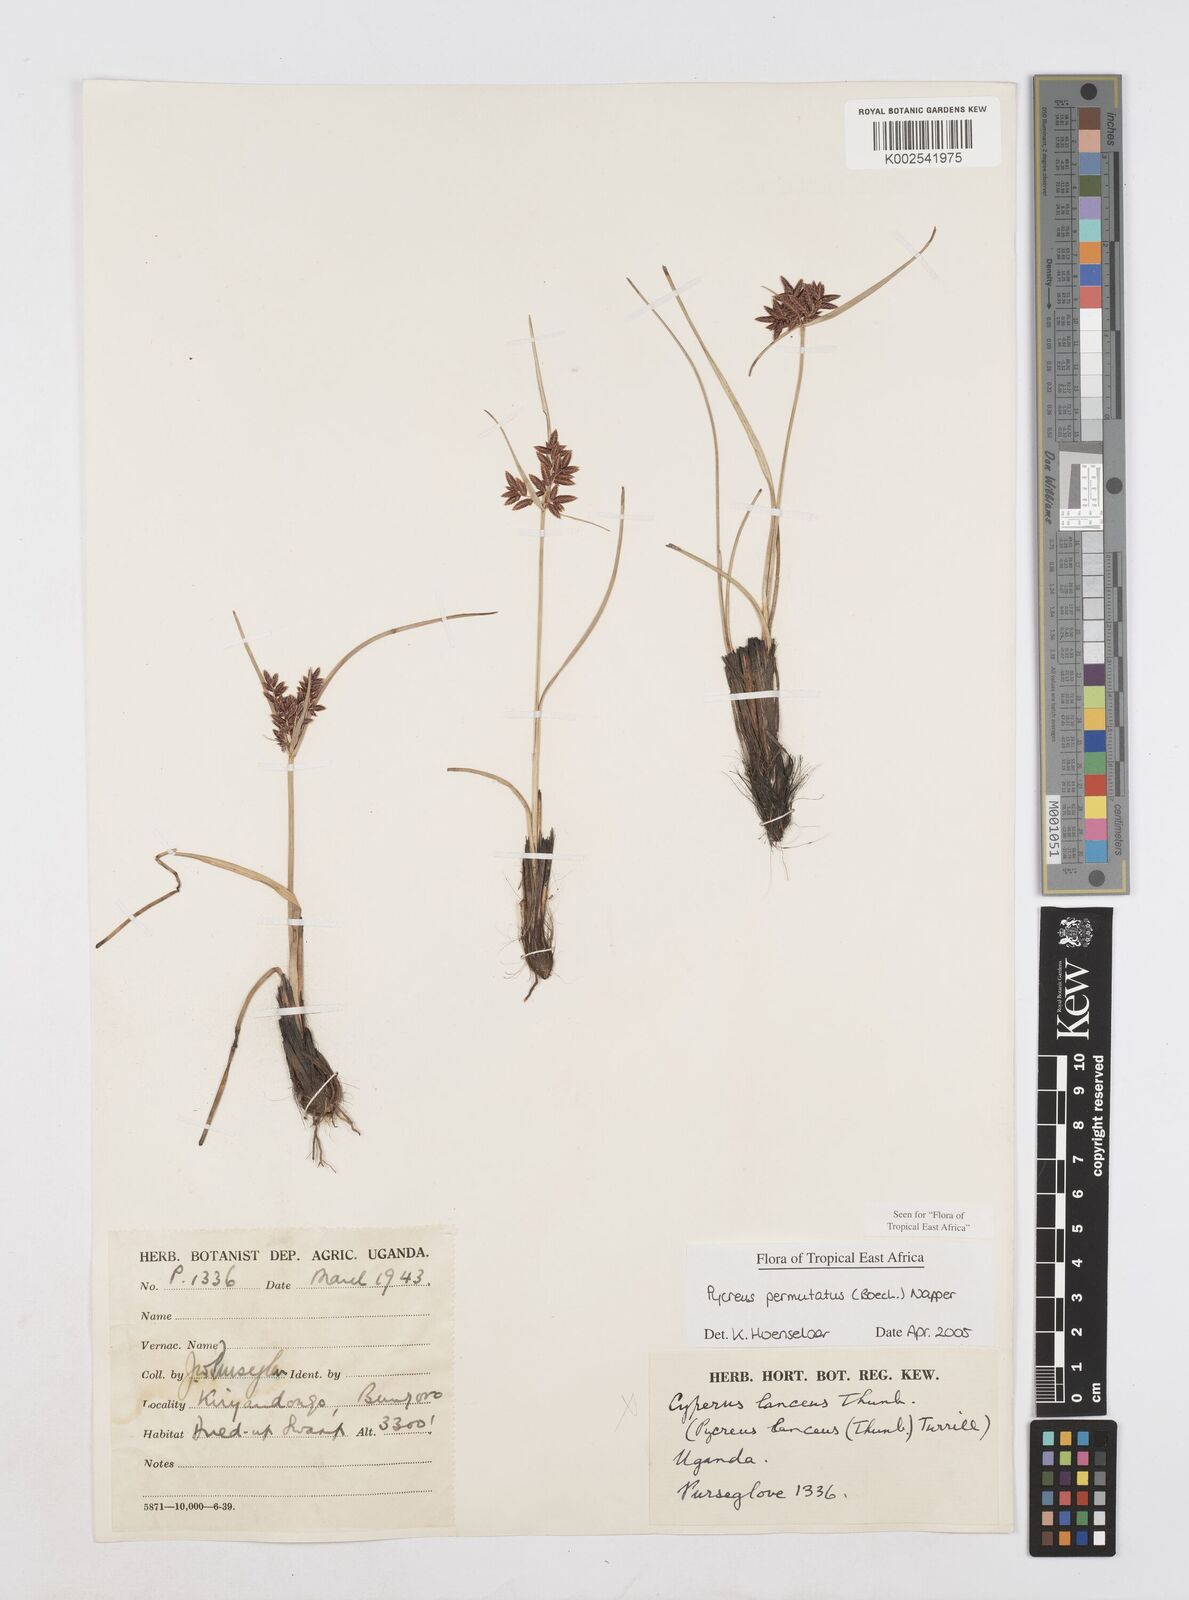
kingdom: Plantae
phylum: Tracheophyta
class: Liliopsida
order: Poales
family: Cyperaceae
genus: Cyperus
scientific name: Cyperus nigricans
